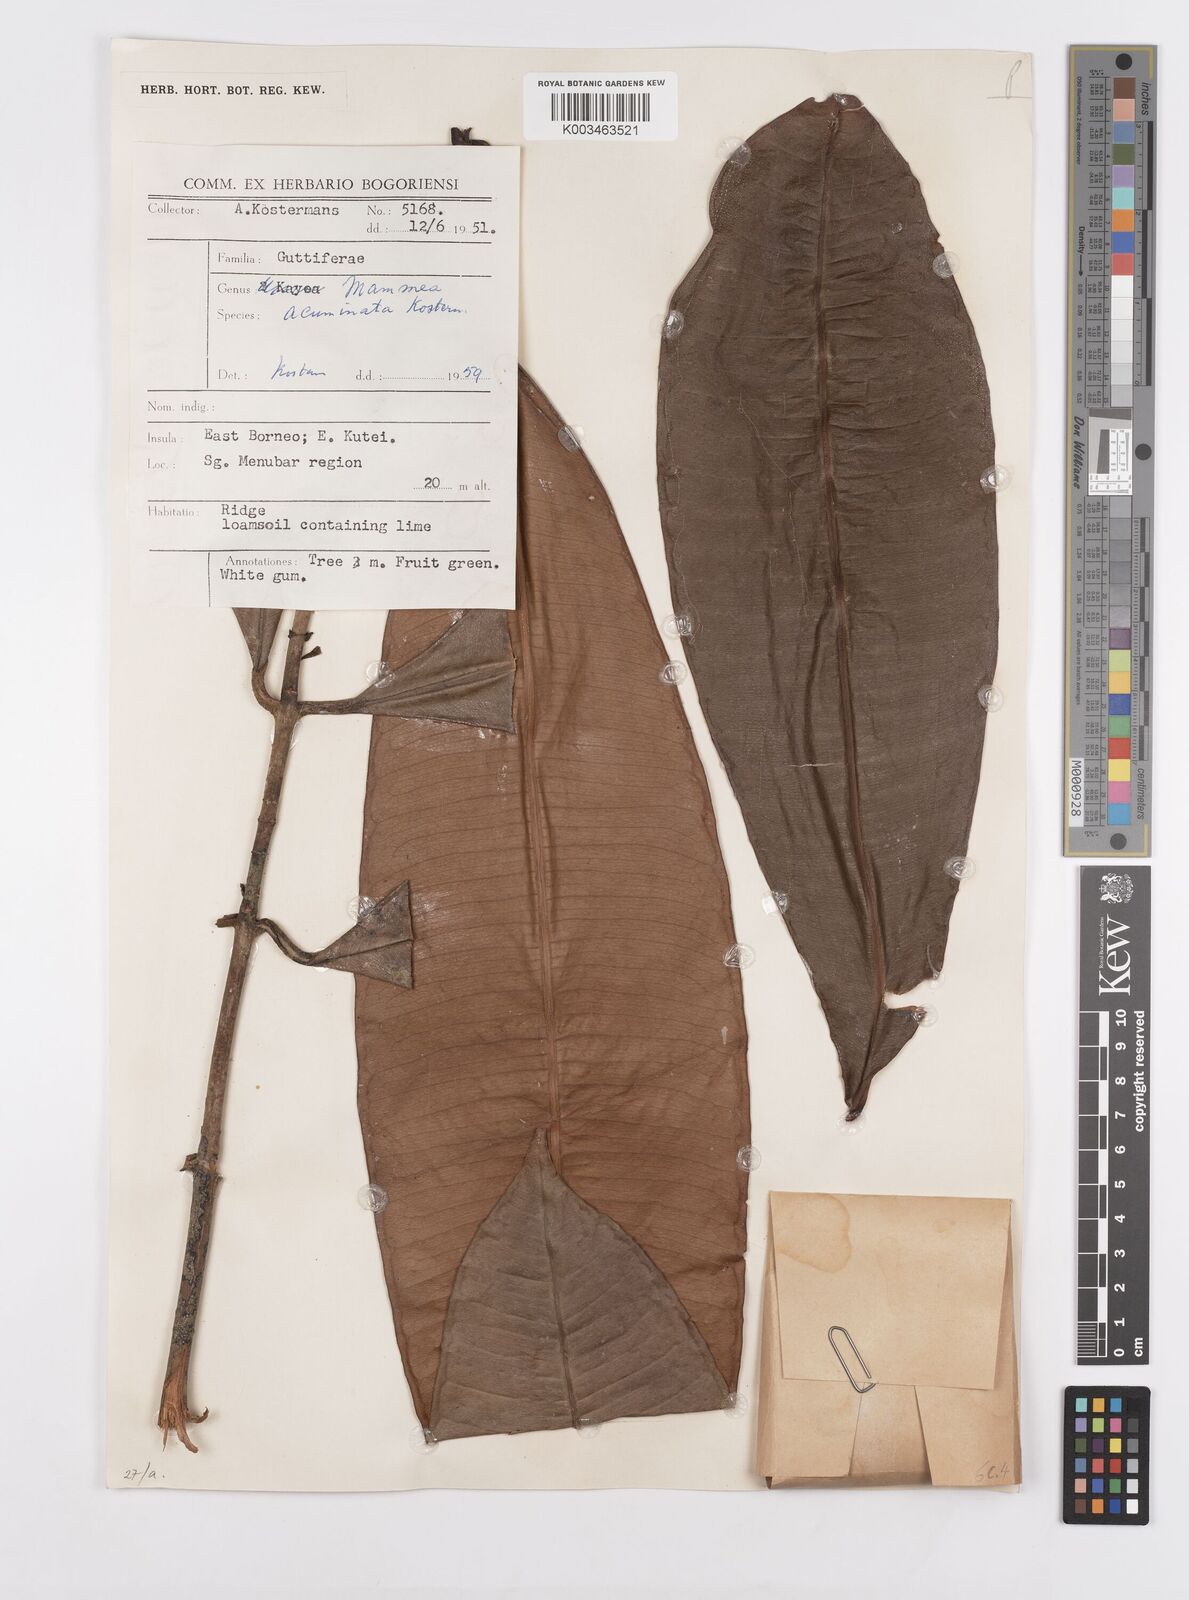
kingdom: Plantae
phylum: Tracheophyta
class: Magnoliopsida
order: Malpighiales
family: Calophyllaceae
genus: Mammea
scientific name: Mammea acuminata
